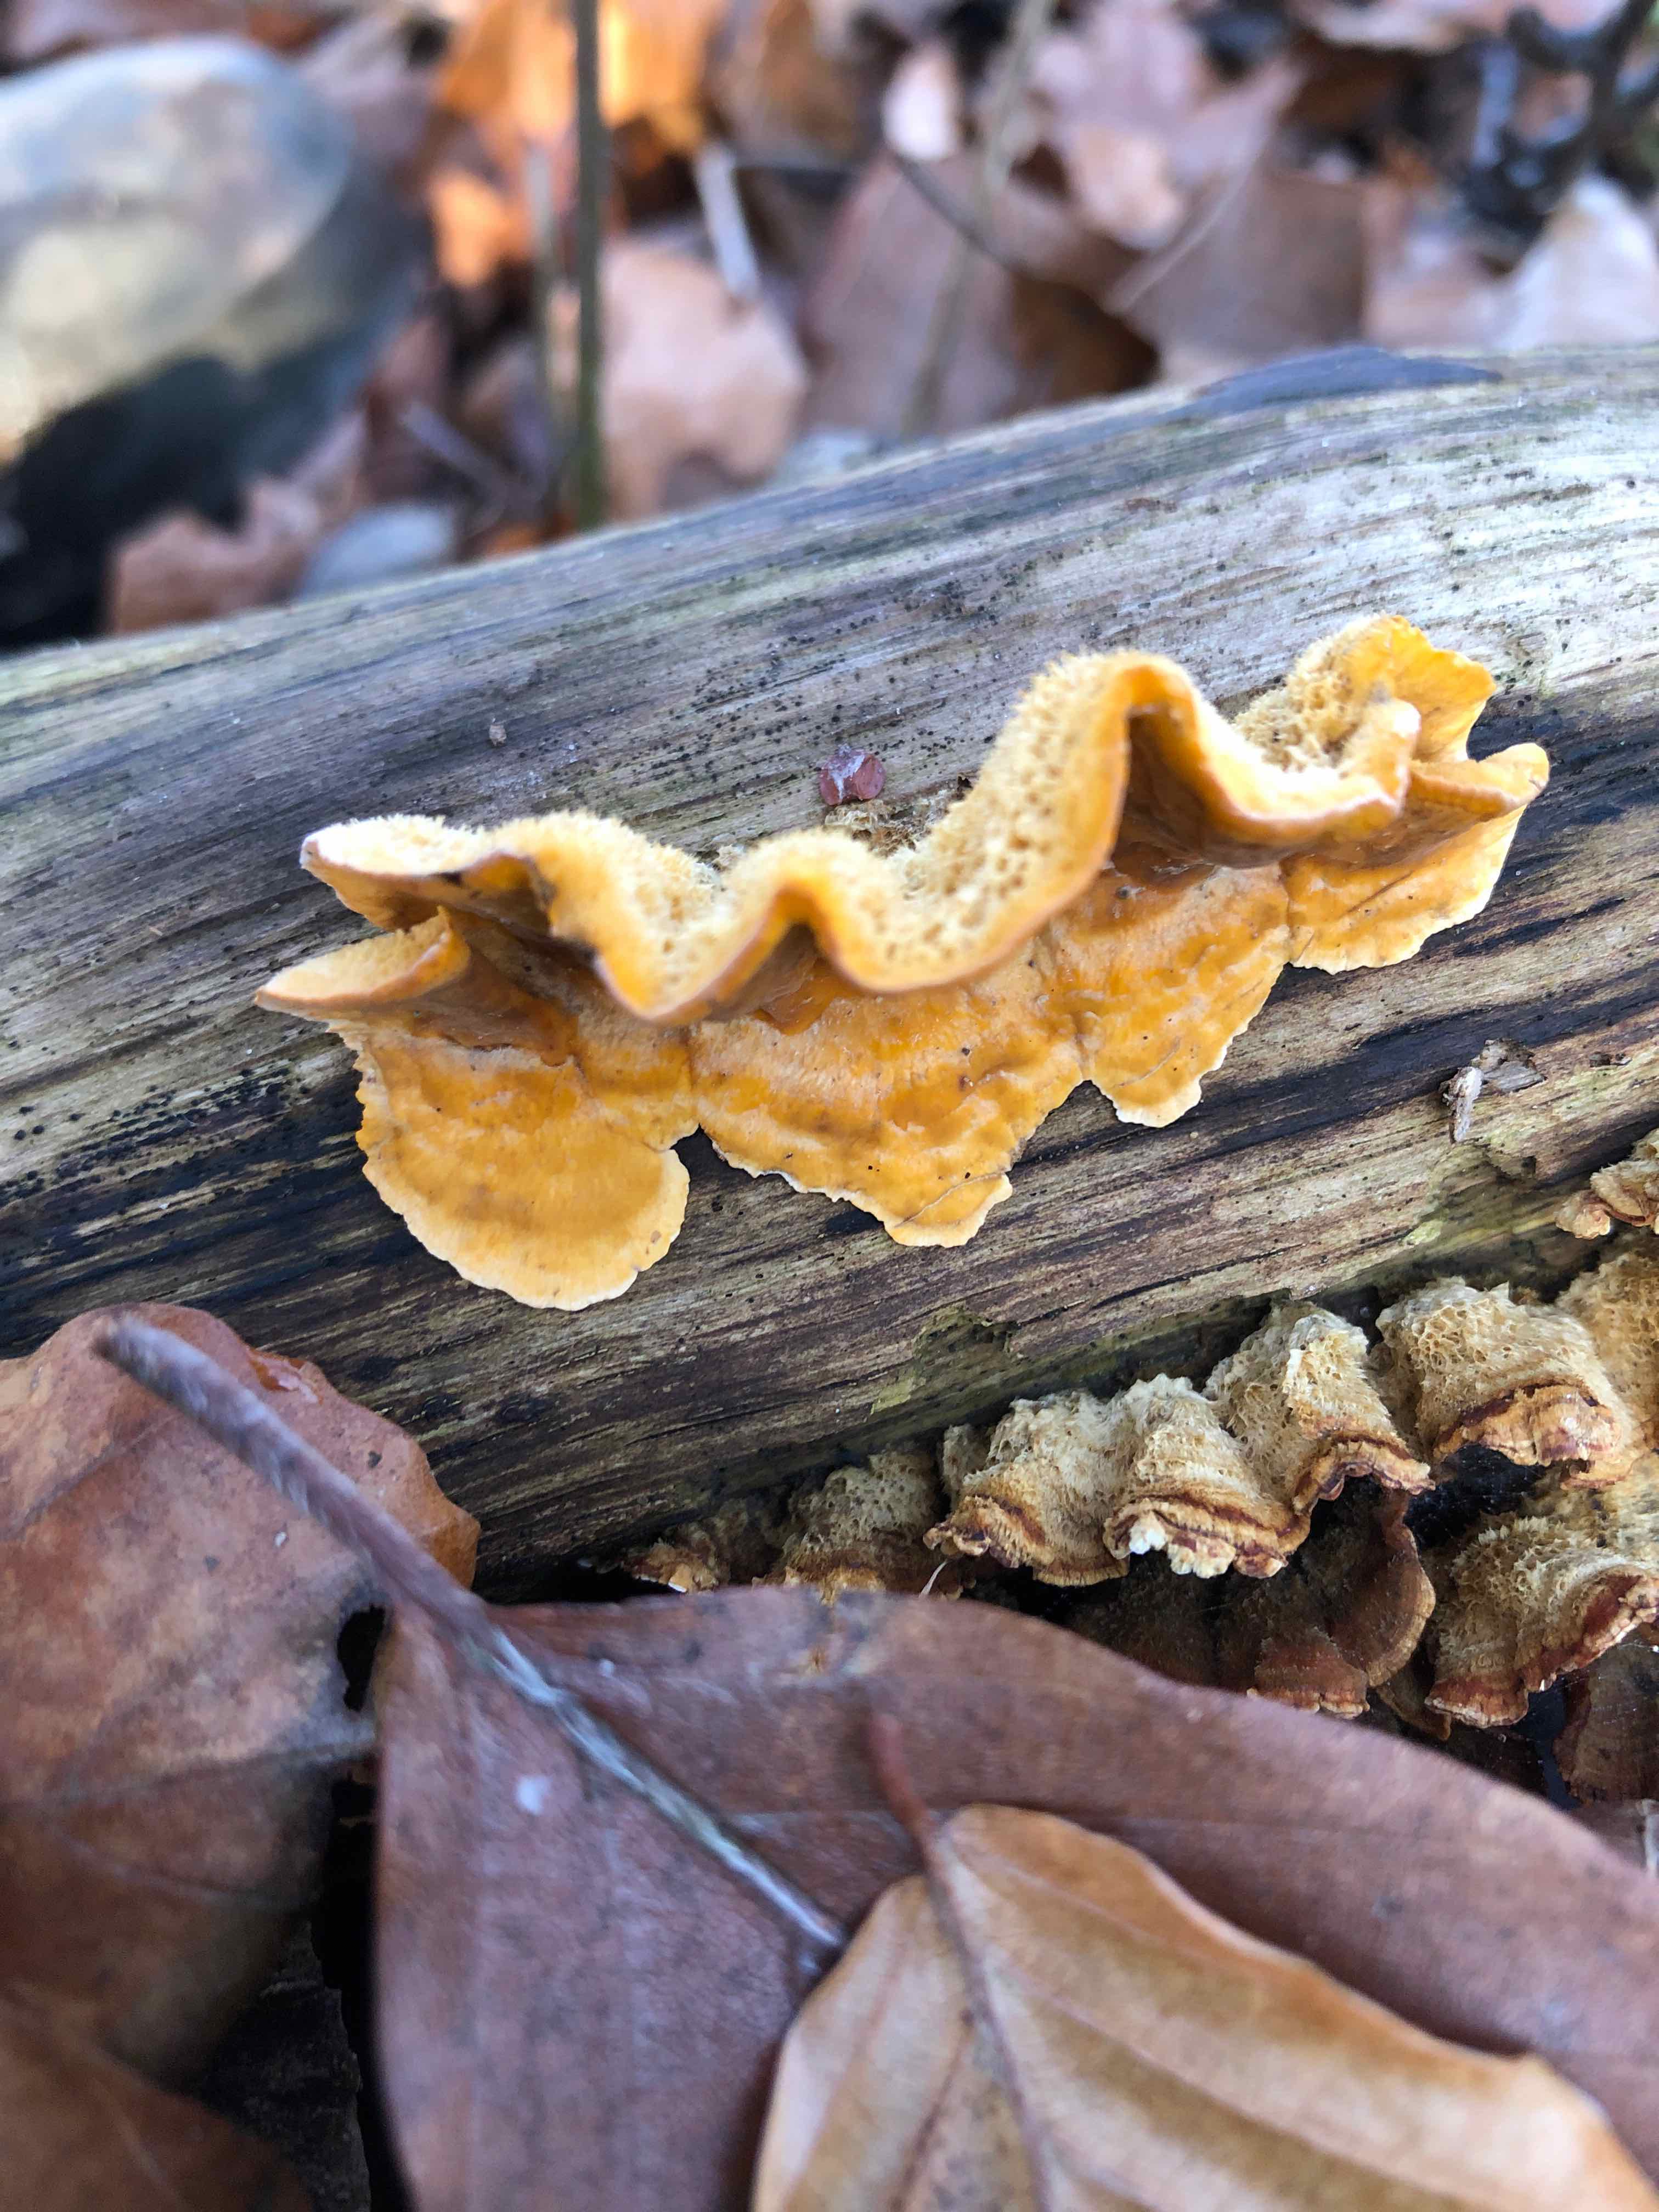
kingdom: Fungi
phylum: Basidiomycota
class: Agaricomycetes
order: Russulales
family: Stereaceae
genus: Stereum
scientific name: Stereum hirsutum
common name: håret lædersvamp
